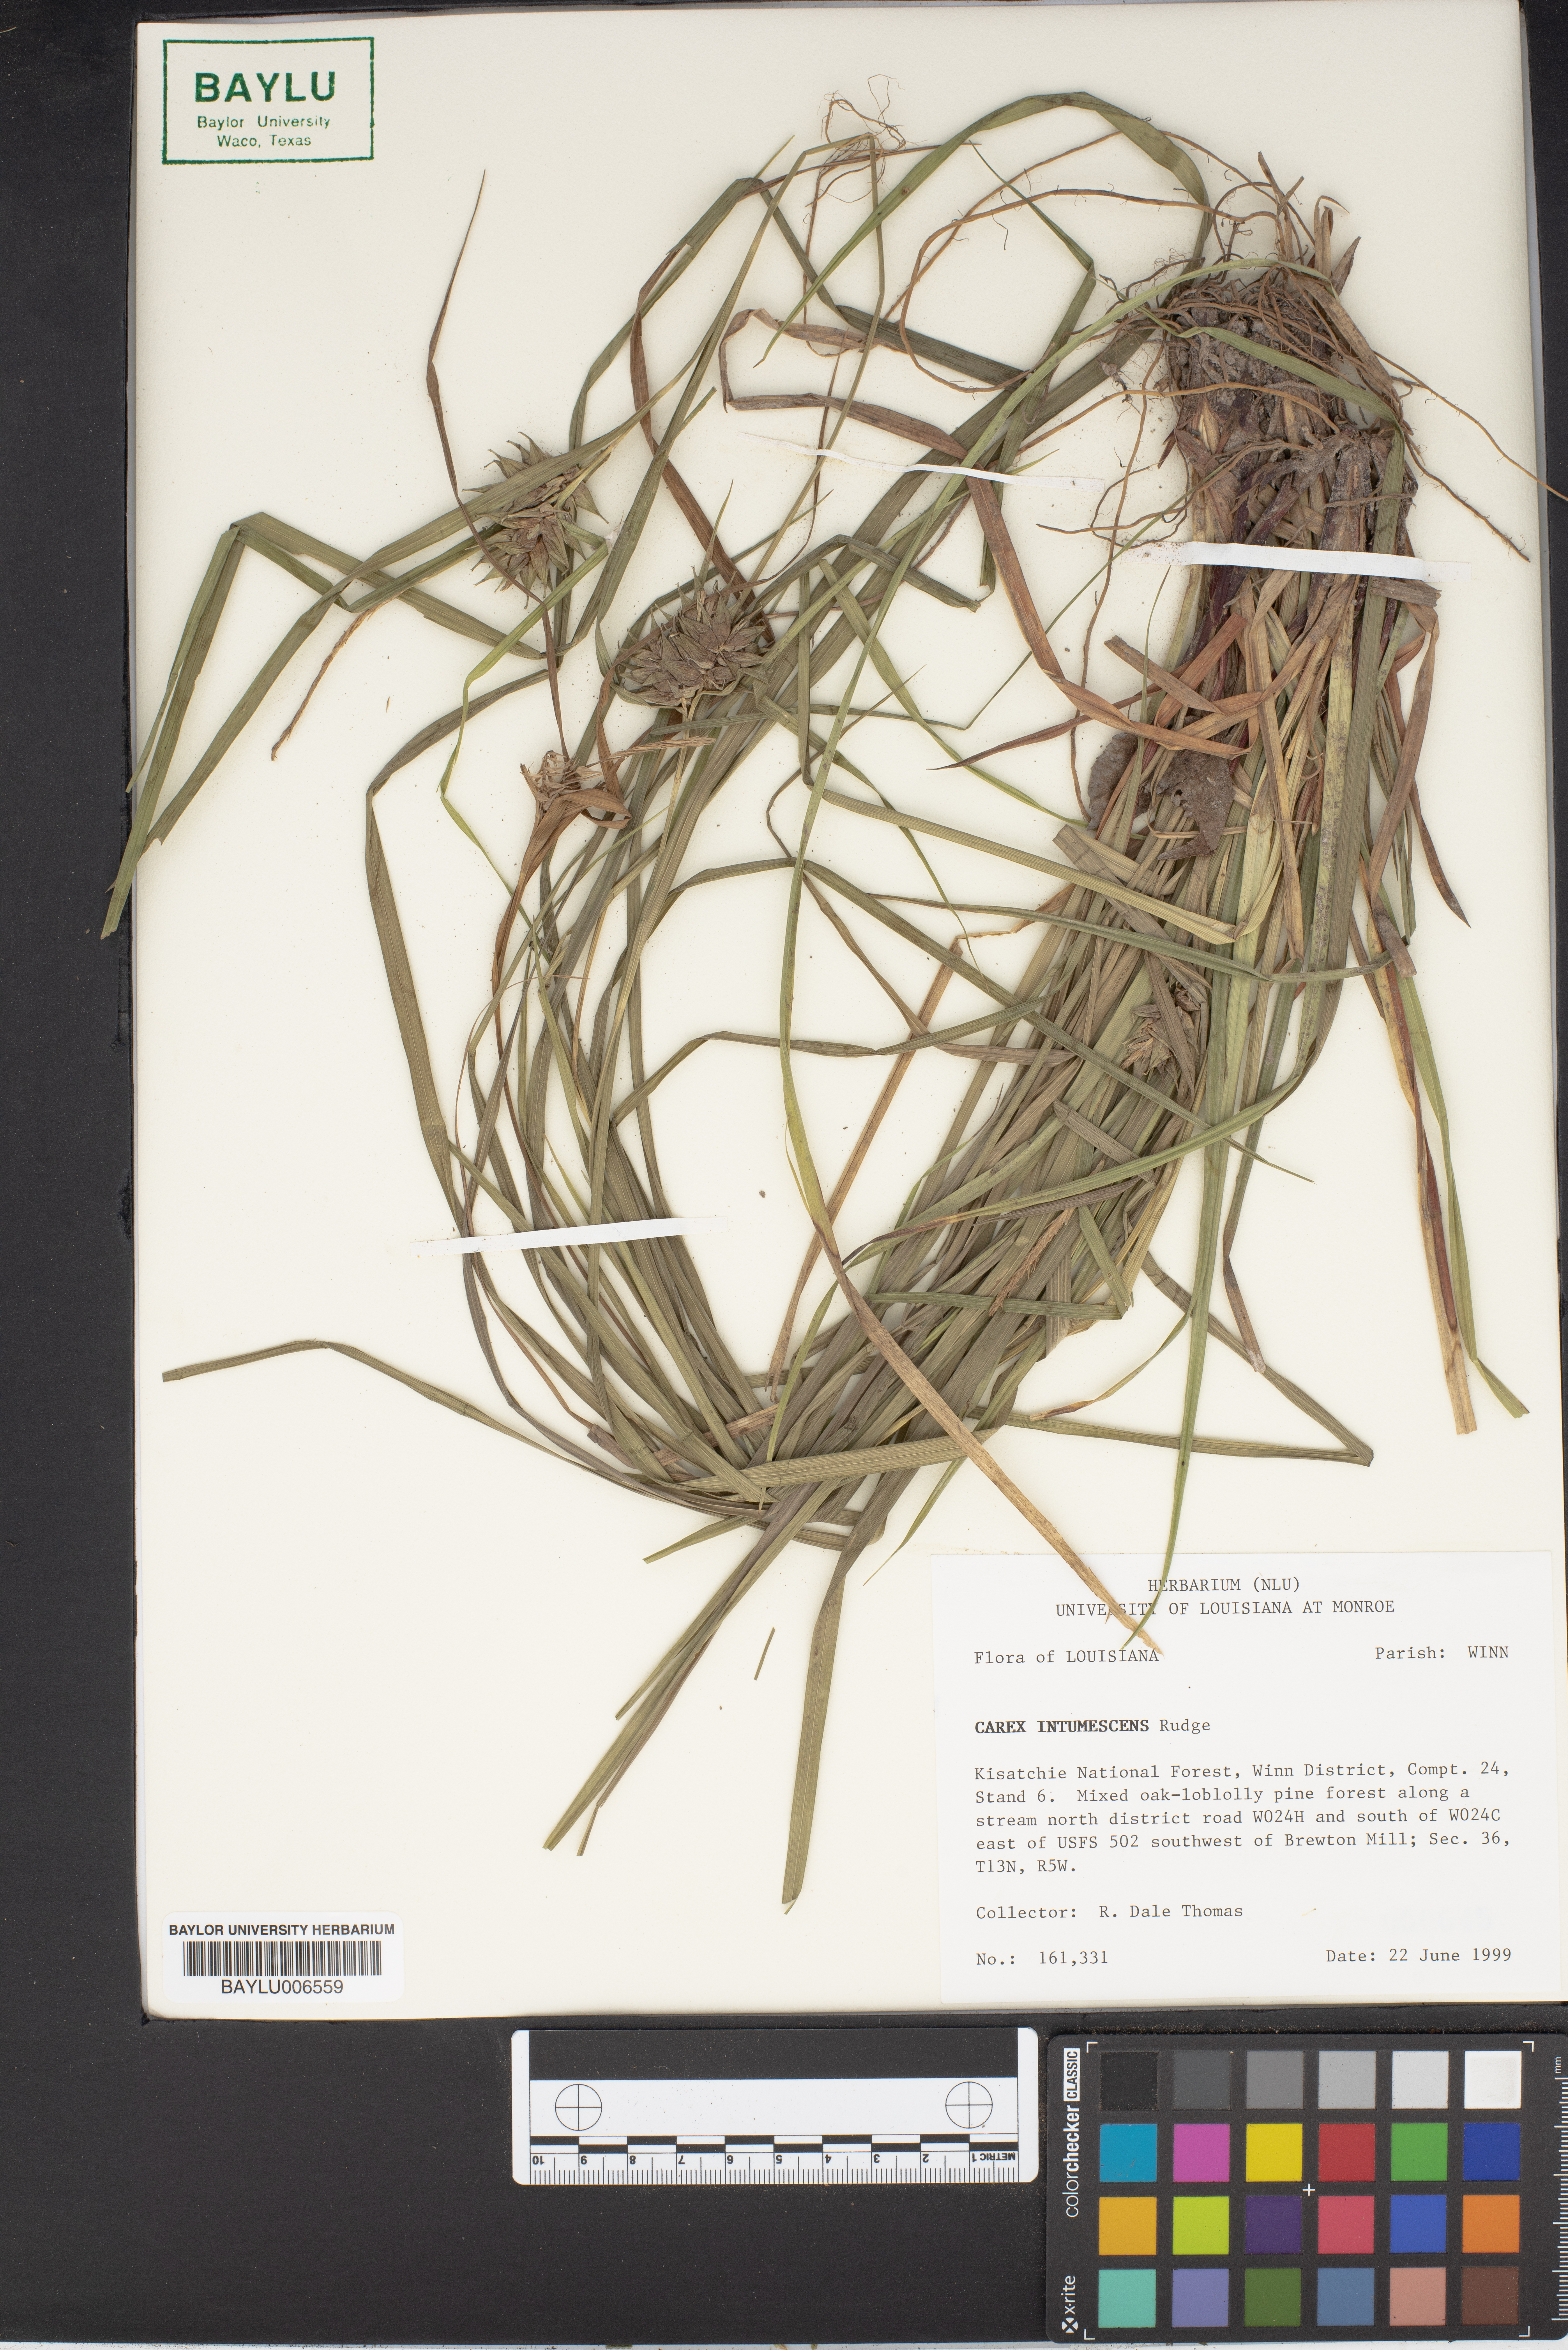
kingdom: Plantae
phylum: Tracheophyta
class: Liliopsida
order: Poales
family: Cyperaceae
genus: Carex
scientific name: Carex intumescens
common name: Greater bladder sedge
